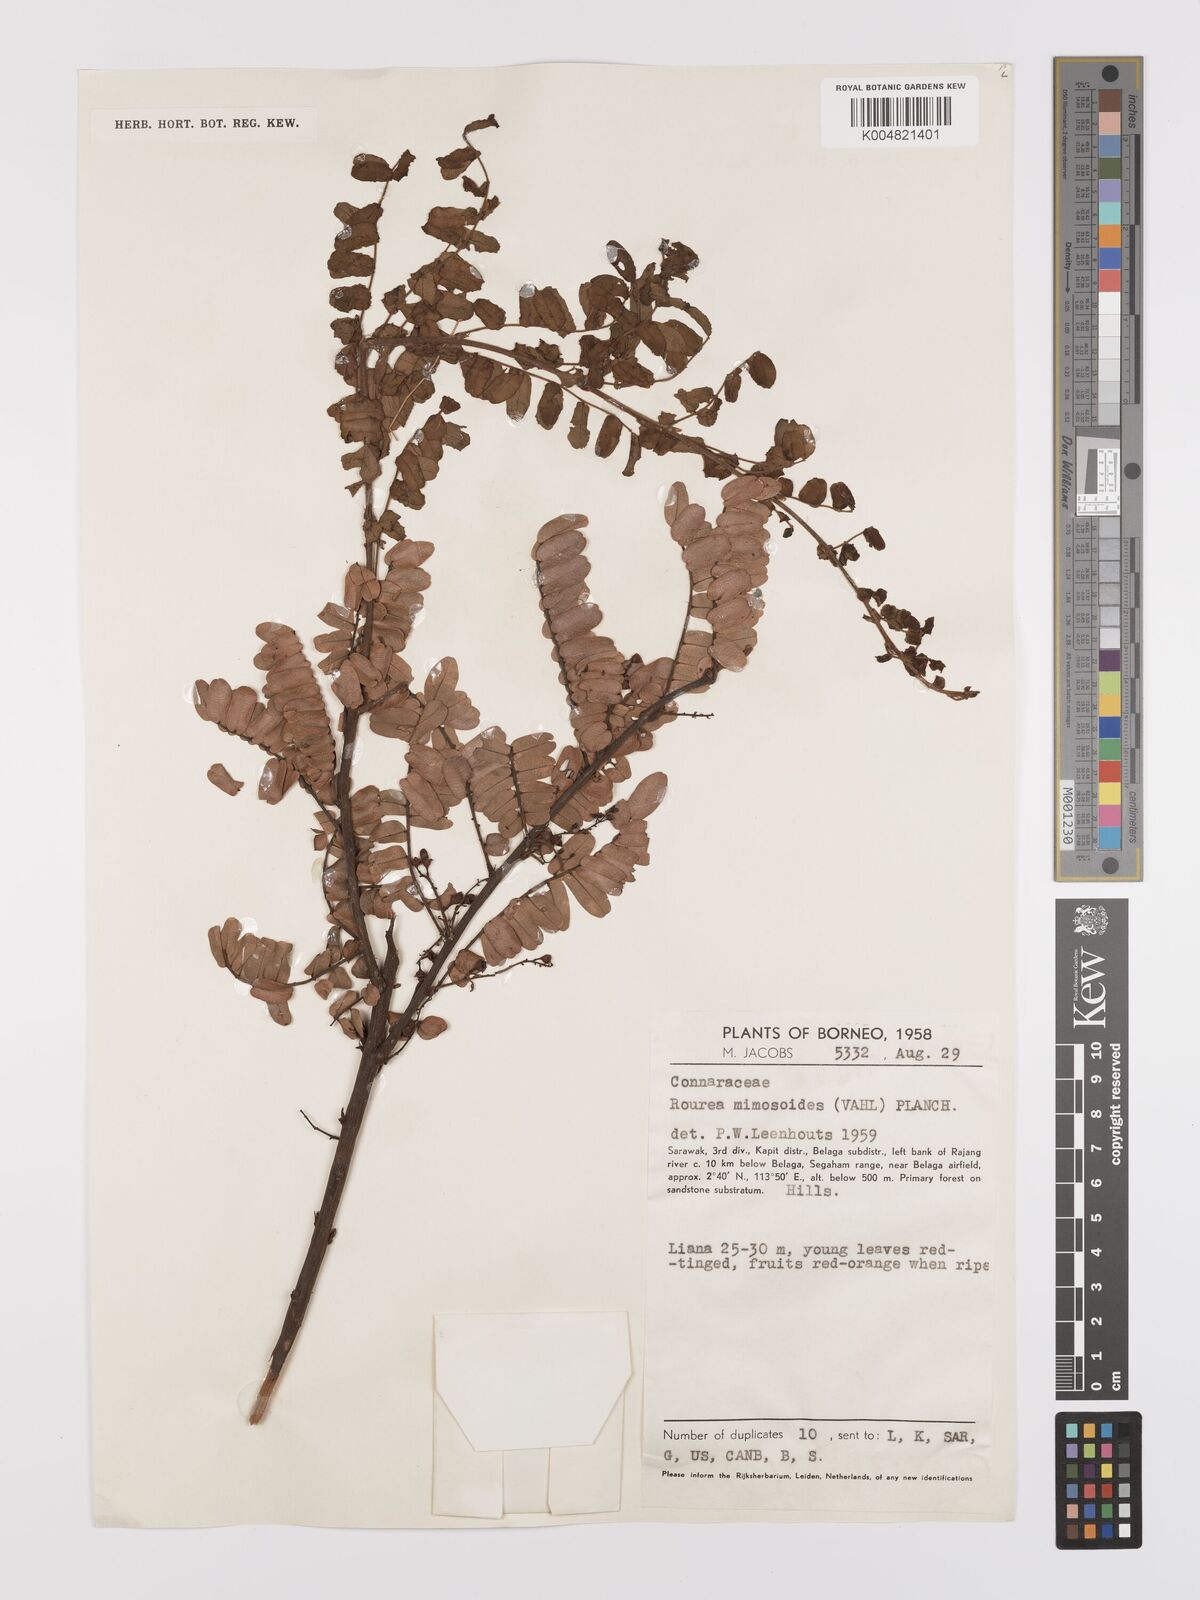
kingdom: Plantae
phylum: Tracheophyta
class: Magnoliopsida
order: Oxalidales
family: Connaraceae
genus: Rourea
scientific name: Rourea mimosoides
